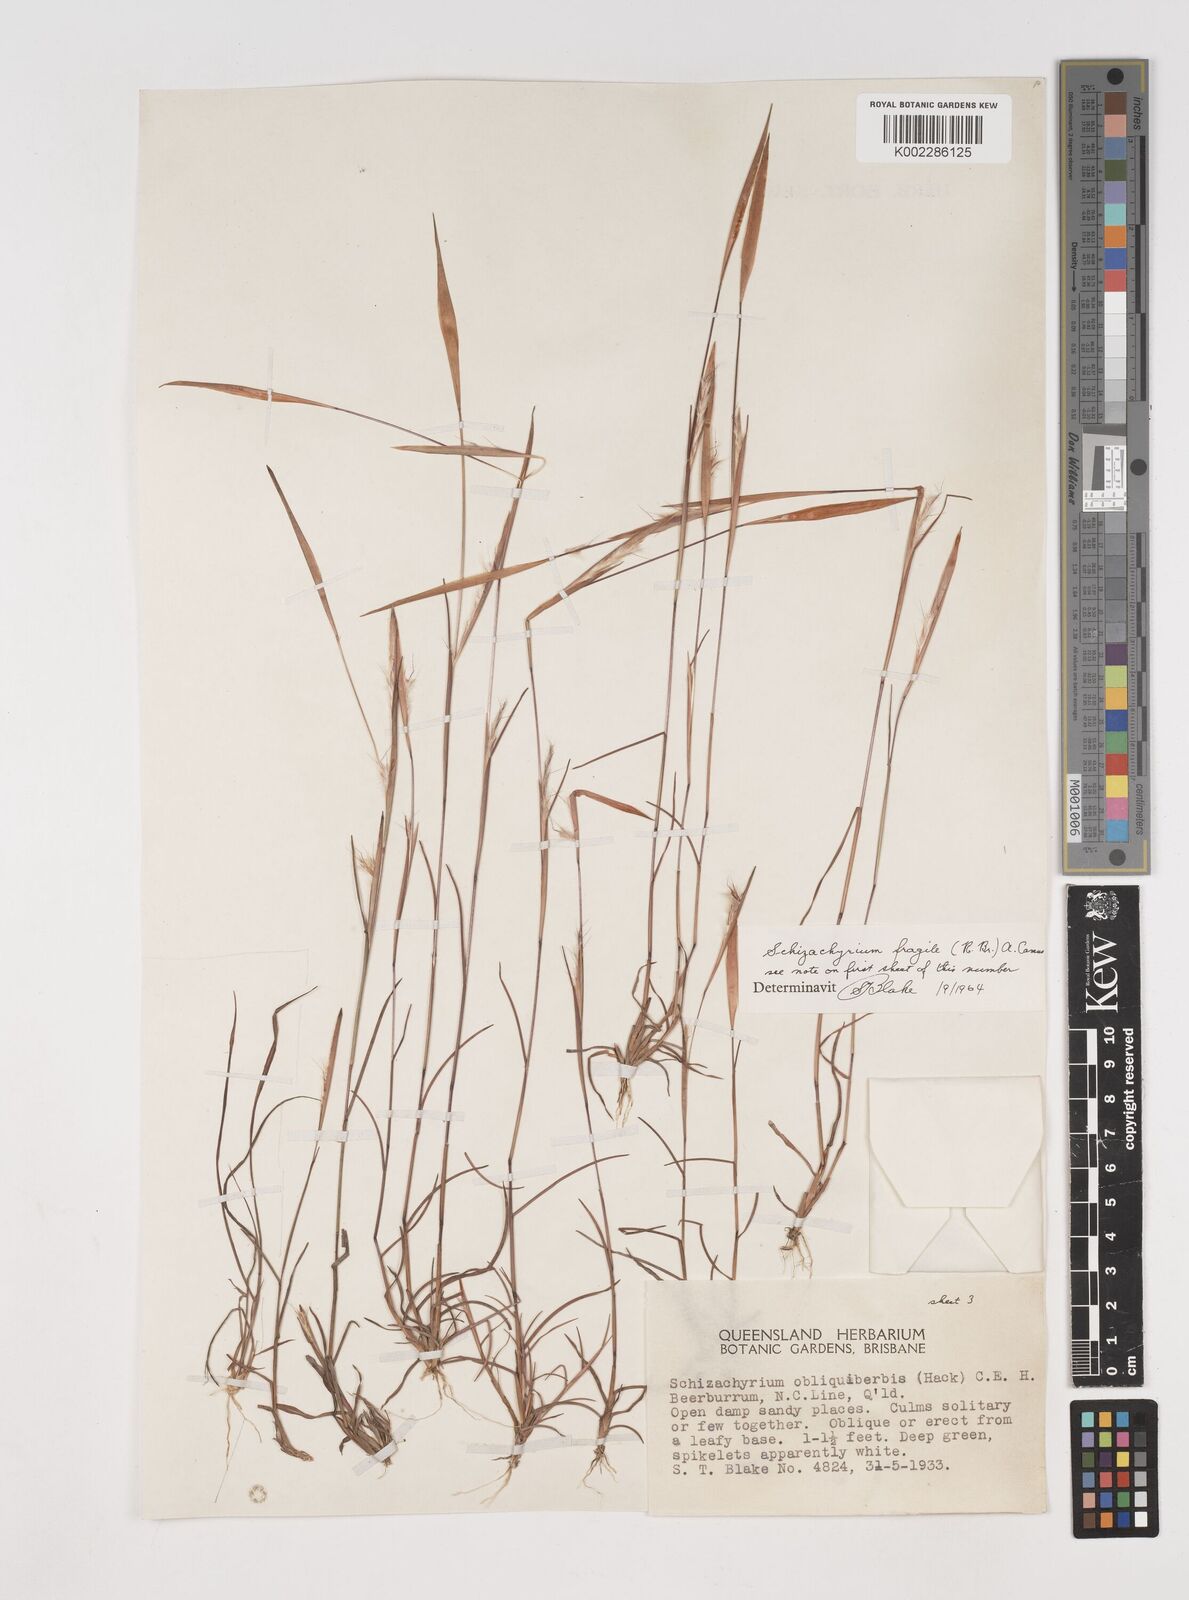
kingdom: Plantae
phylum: Tracheophyta
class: Liliopsida
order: Poales
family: Poaceae
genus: Schizachyrium
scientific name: Schizachyrium fragile
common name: Red spathe grass
